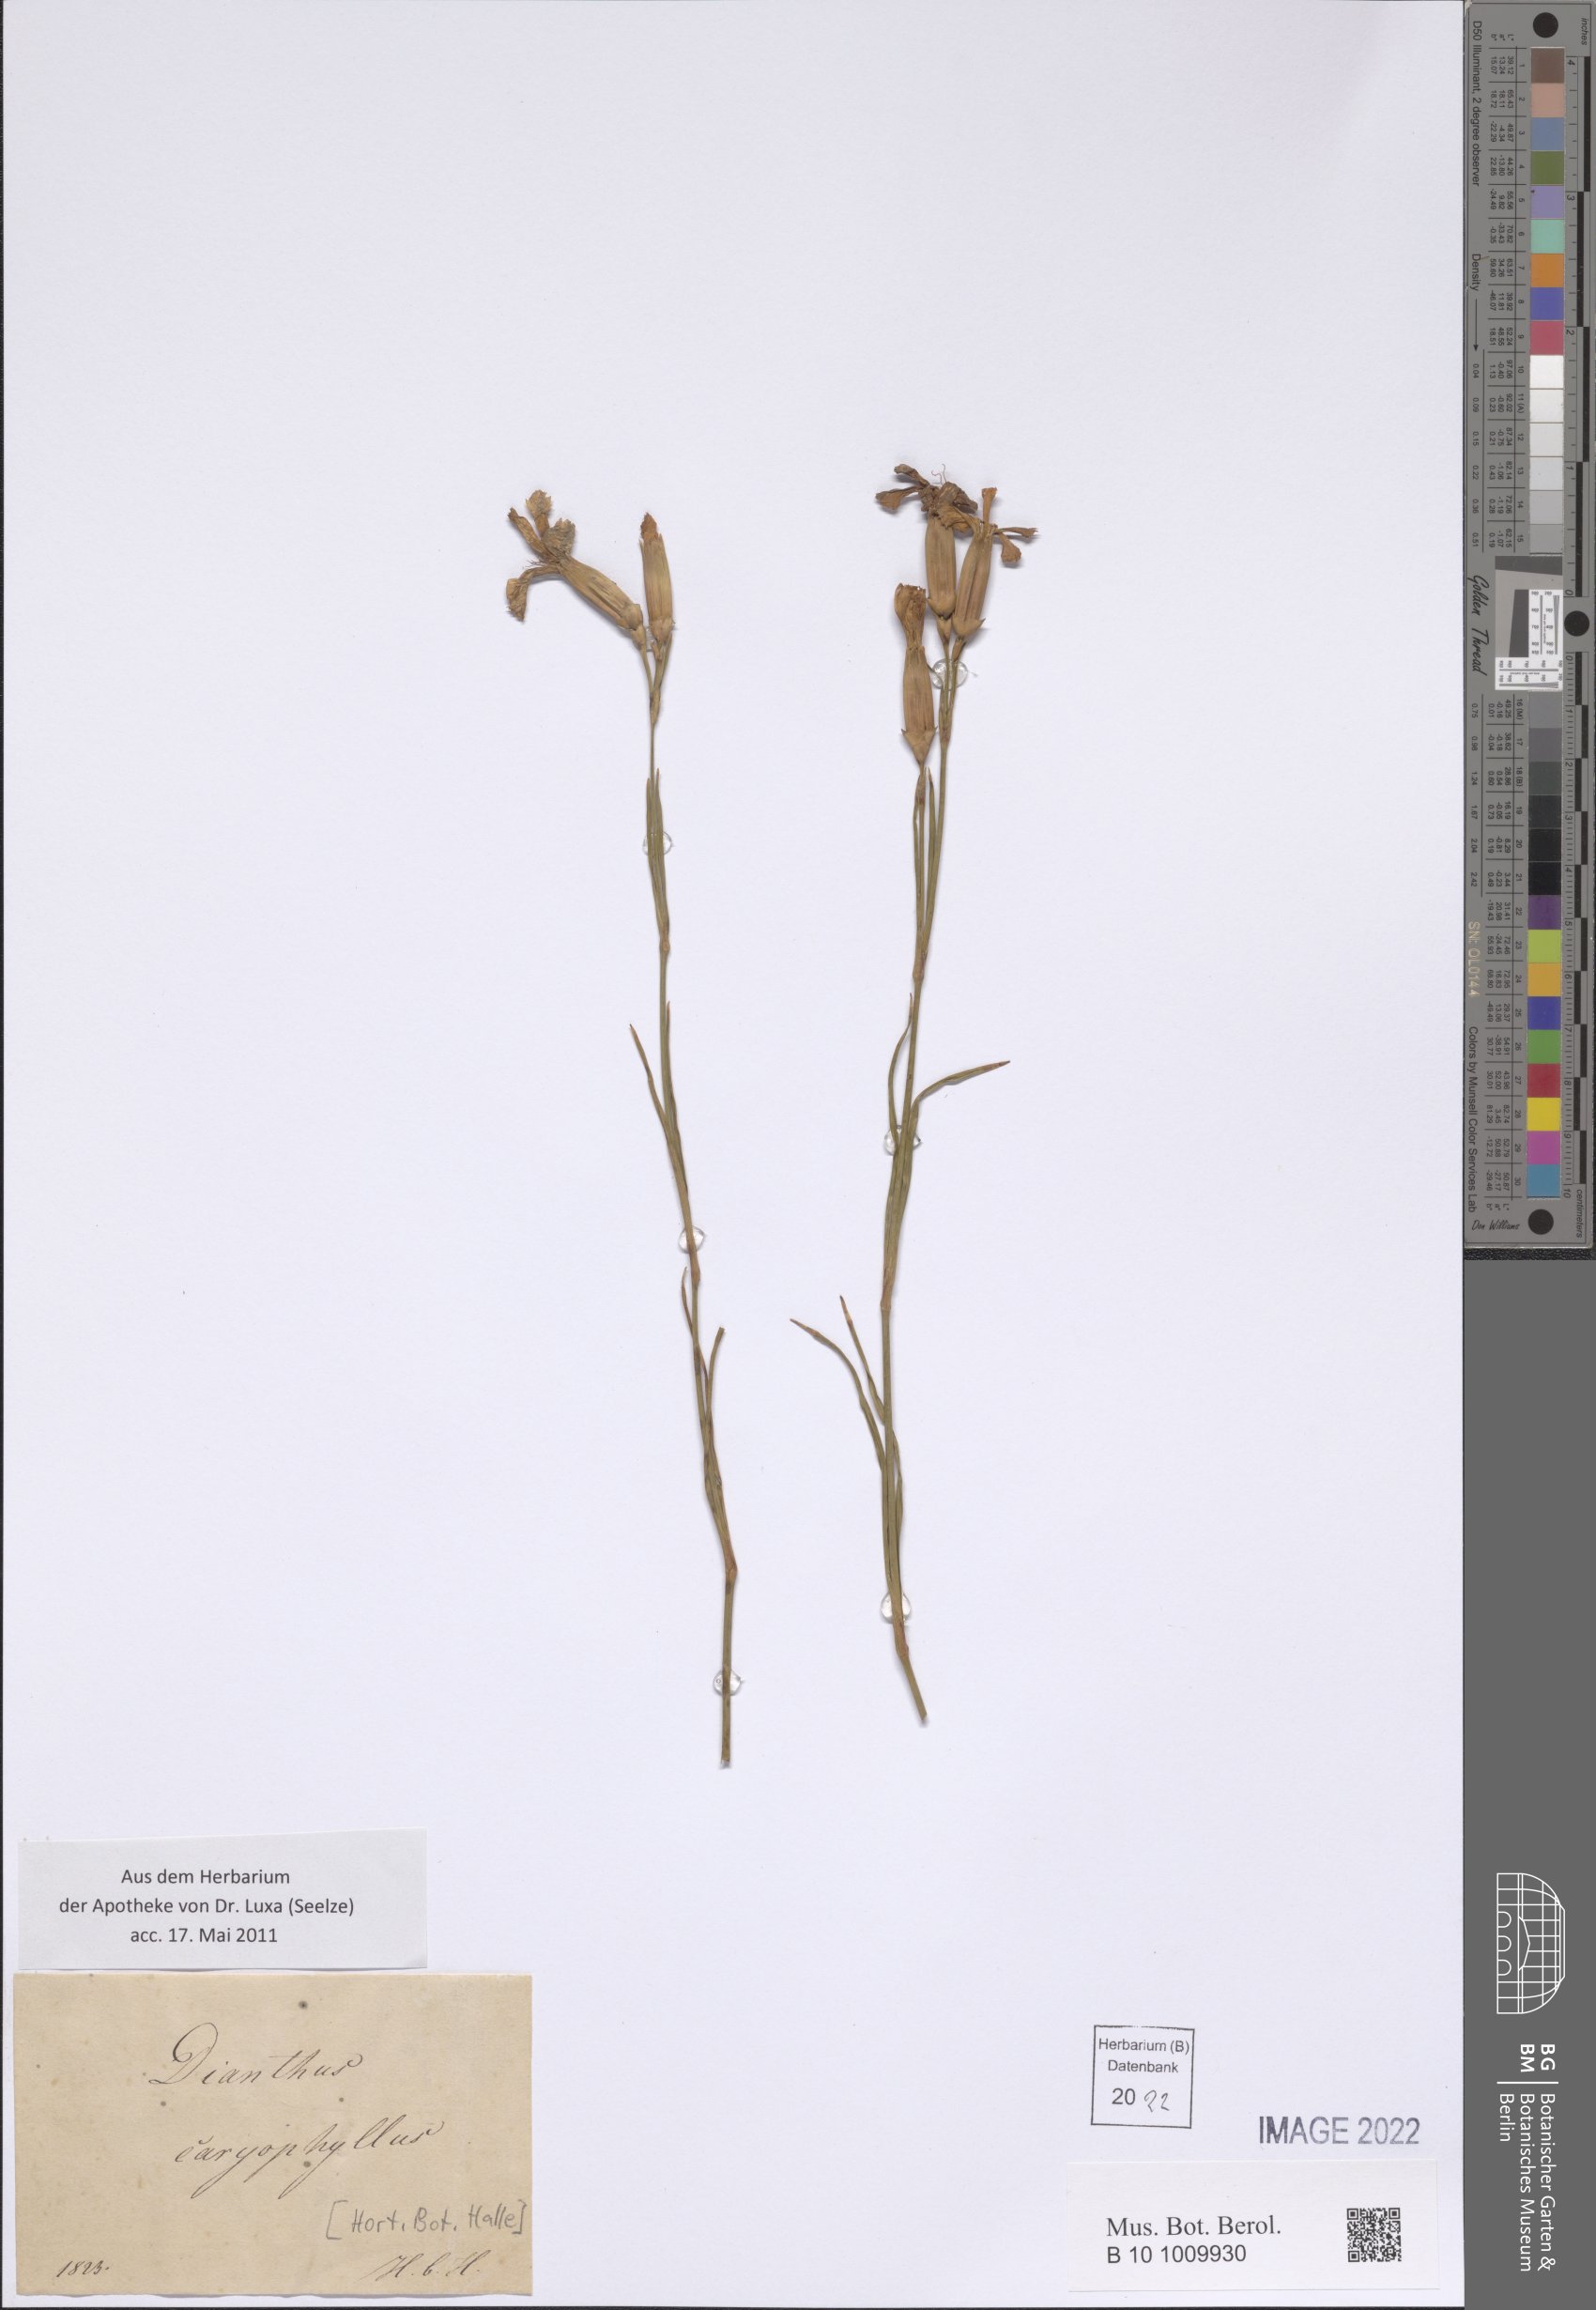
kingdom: Plantae
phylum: Tracheophyta
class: Magnoliopsida
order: Caryophyllales
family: Caryophyllaceae
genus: Dianthus
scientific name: Dianthus caryophyllus
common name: Clove pink
